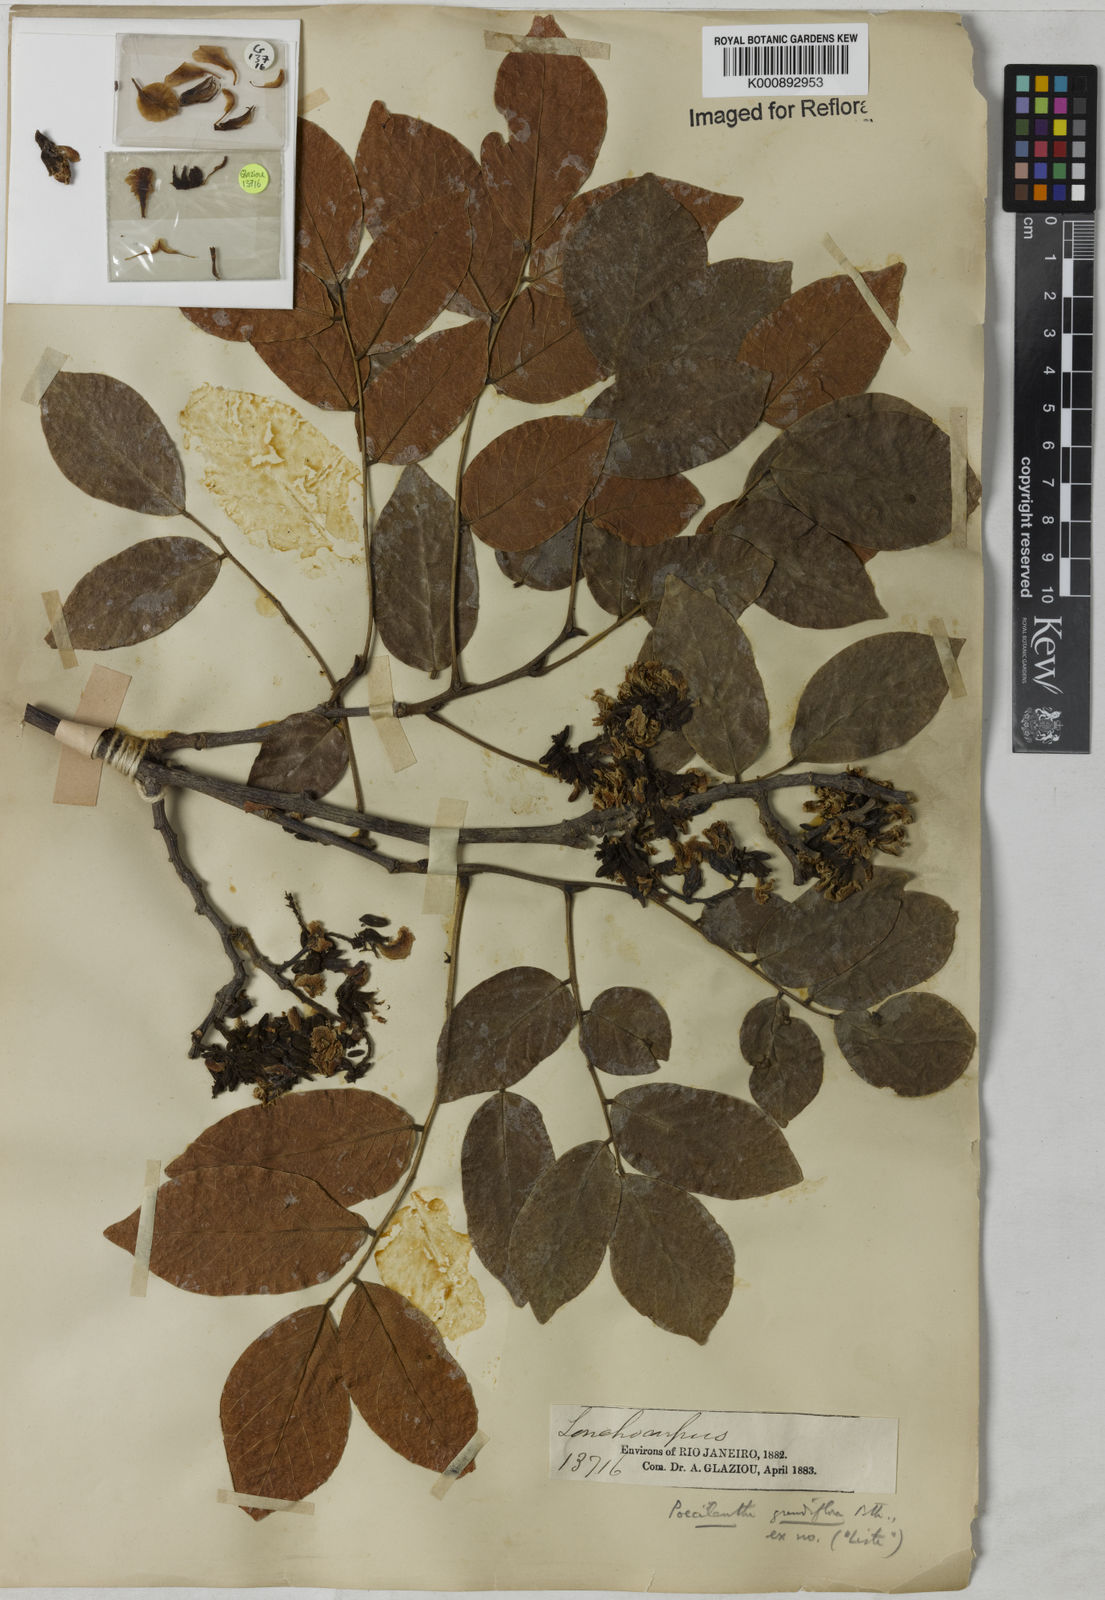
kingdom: Plantae
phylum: Tracheophyta
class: Magnoliopsida
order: Fabales
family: Fabaceae
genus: Poecilanthe
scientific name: Poecilanthe grandiflora
